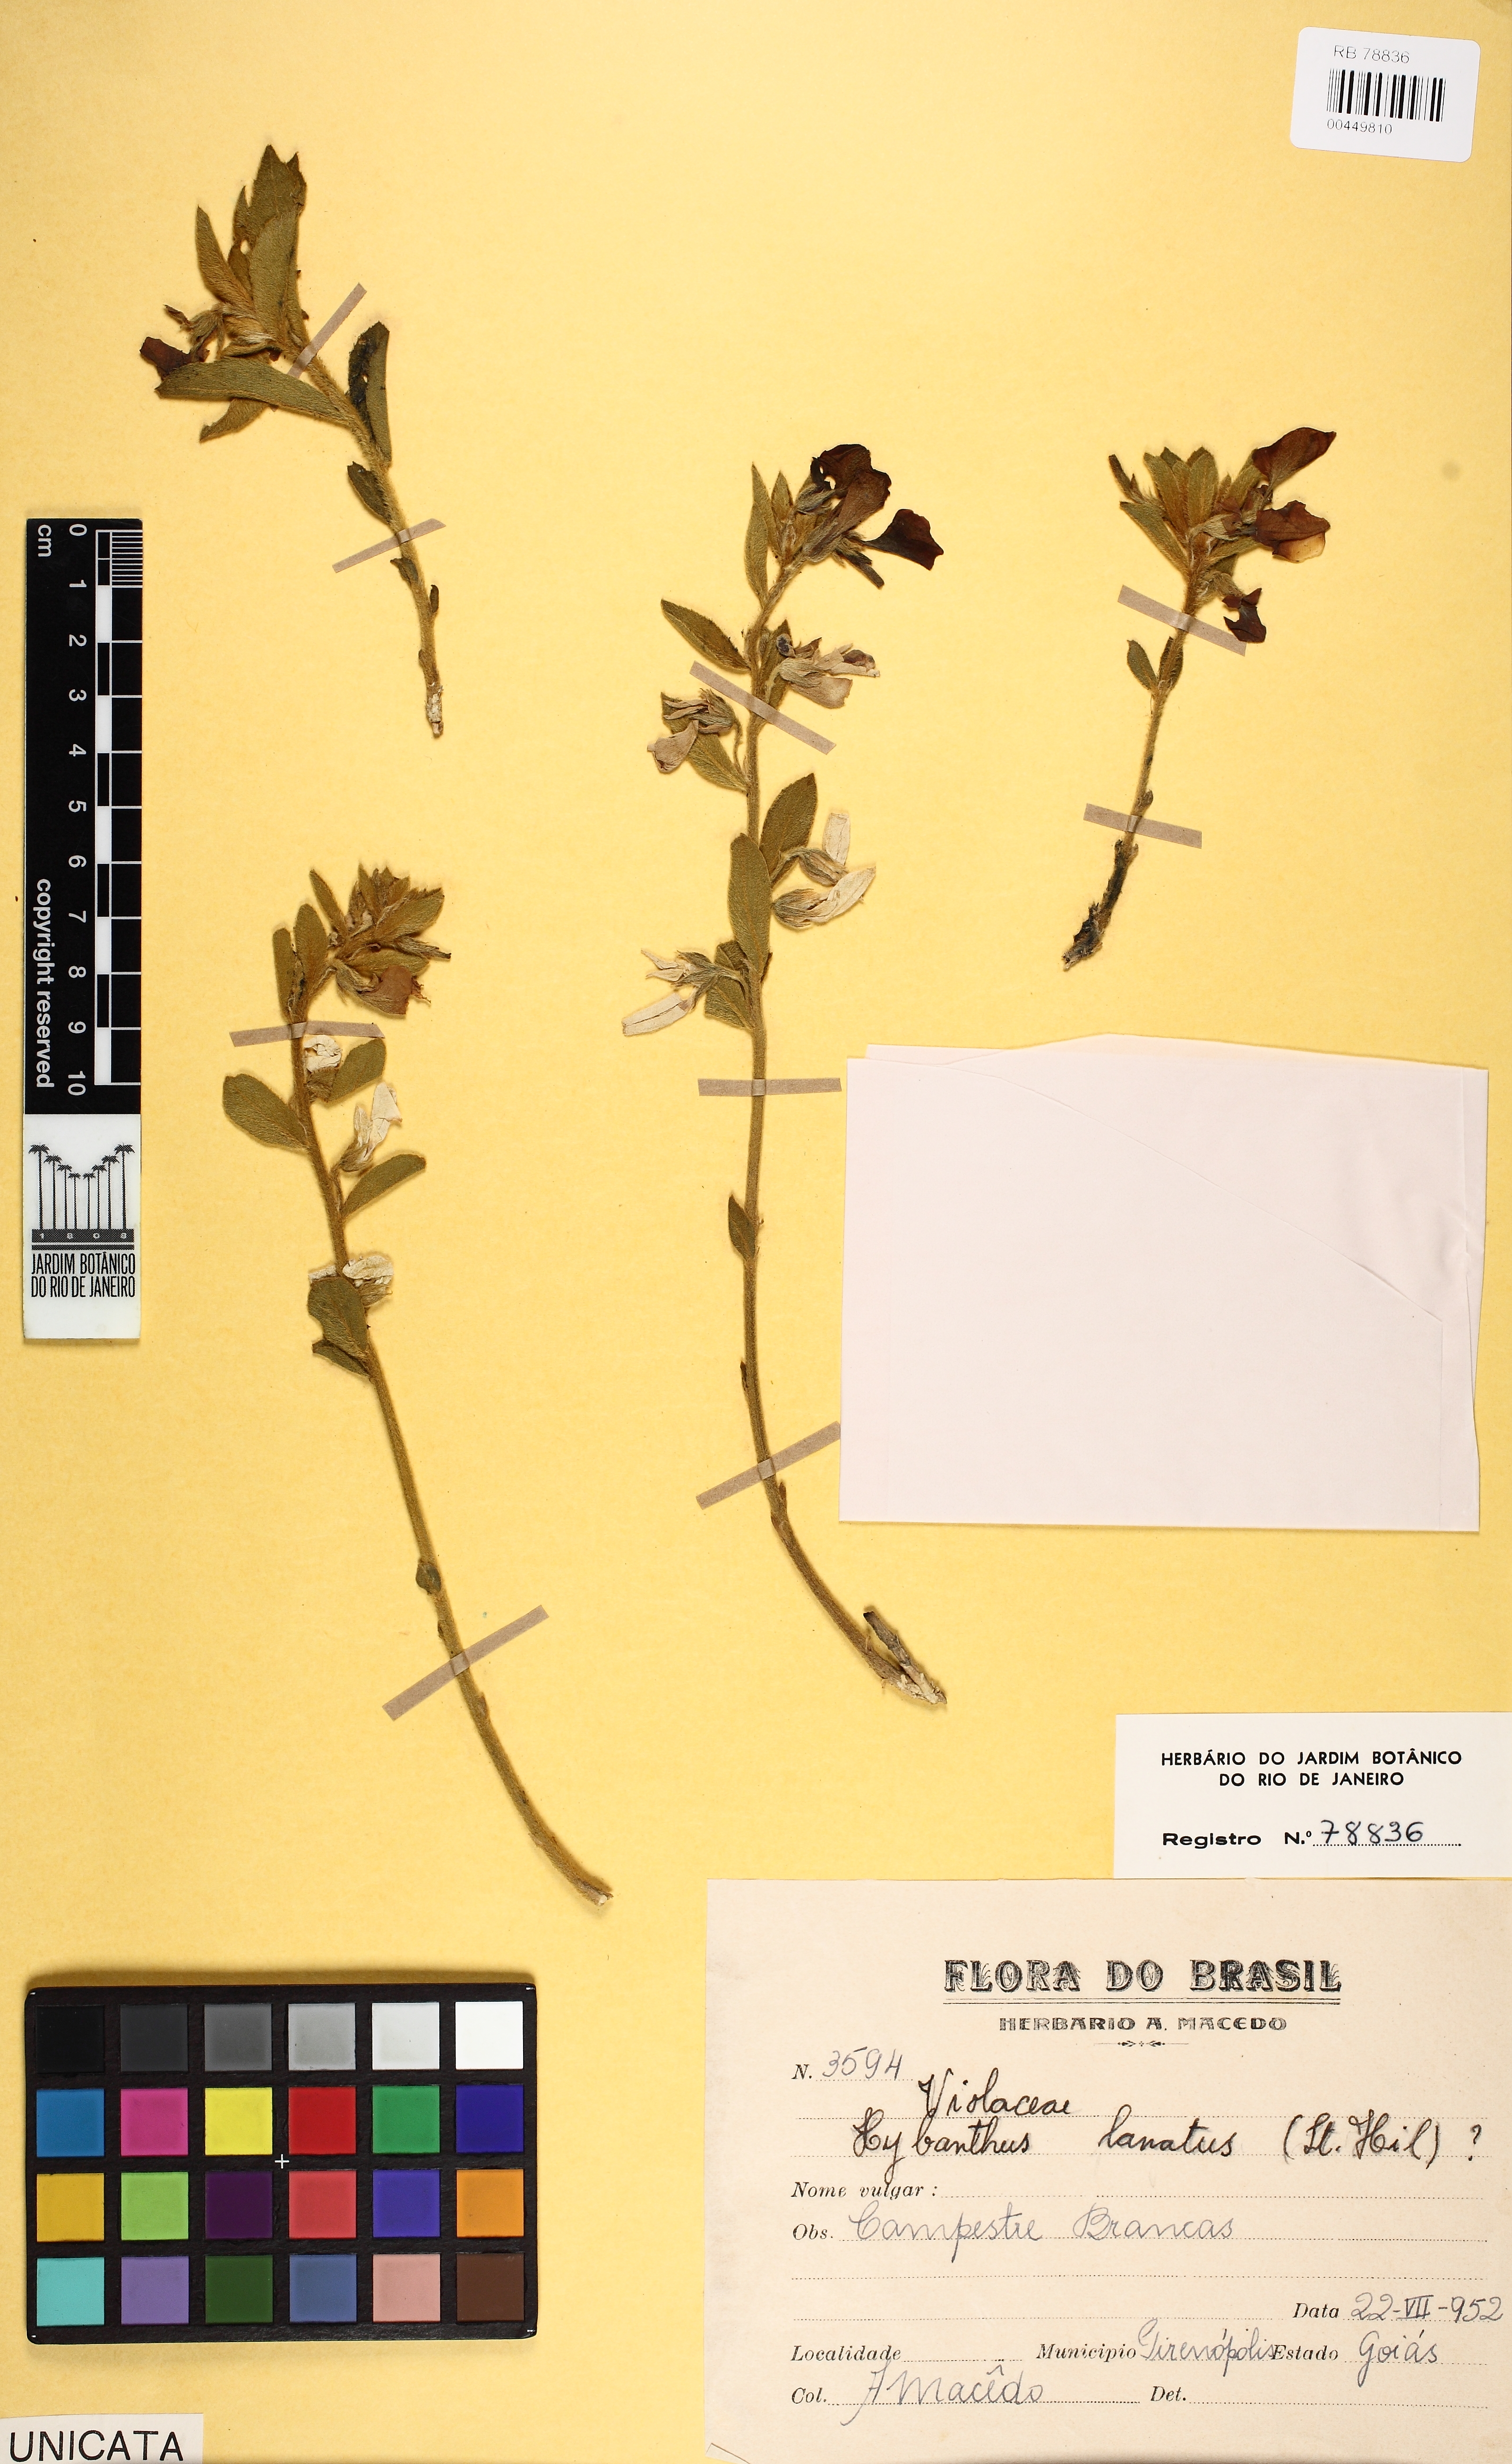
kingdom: Plantae
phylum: Tracheophyta
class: Magnoliopsida
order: Malpighiales
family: Violaceae
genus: Pombalia
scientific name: Pombalia lanata
